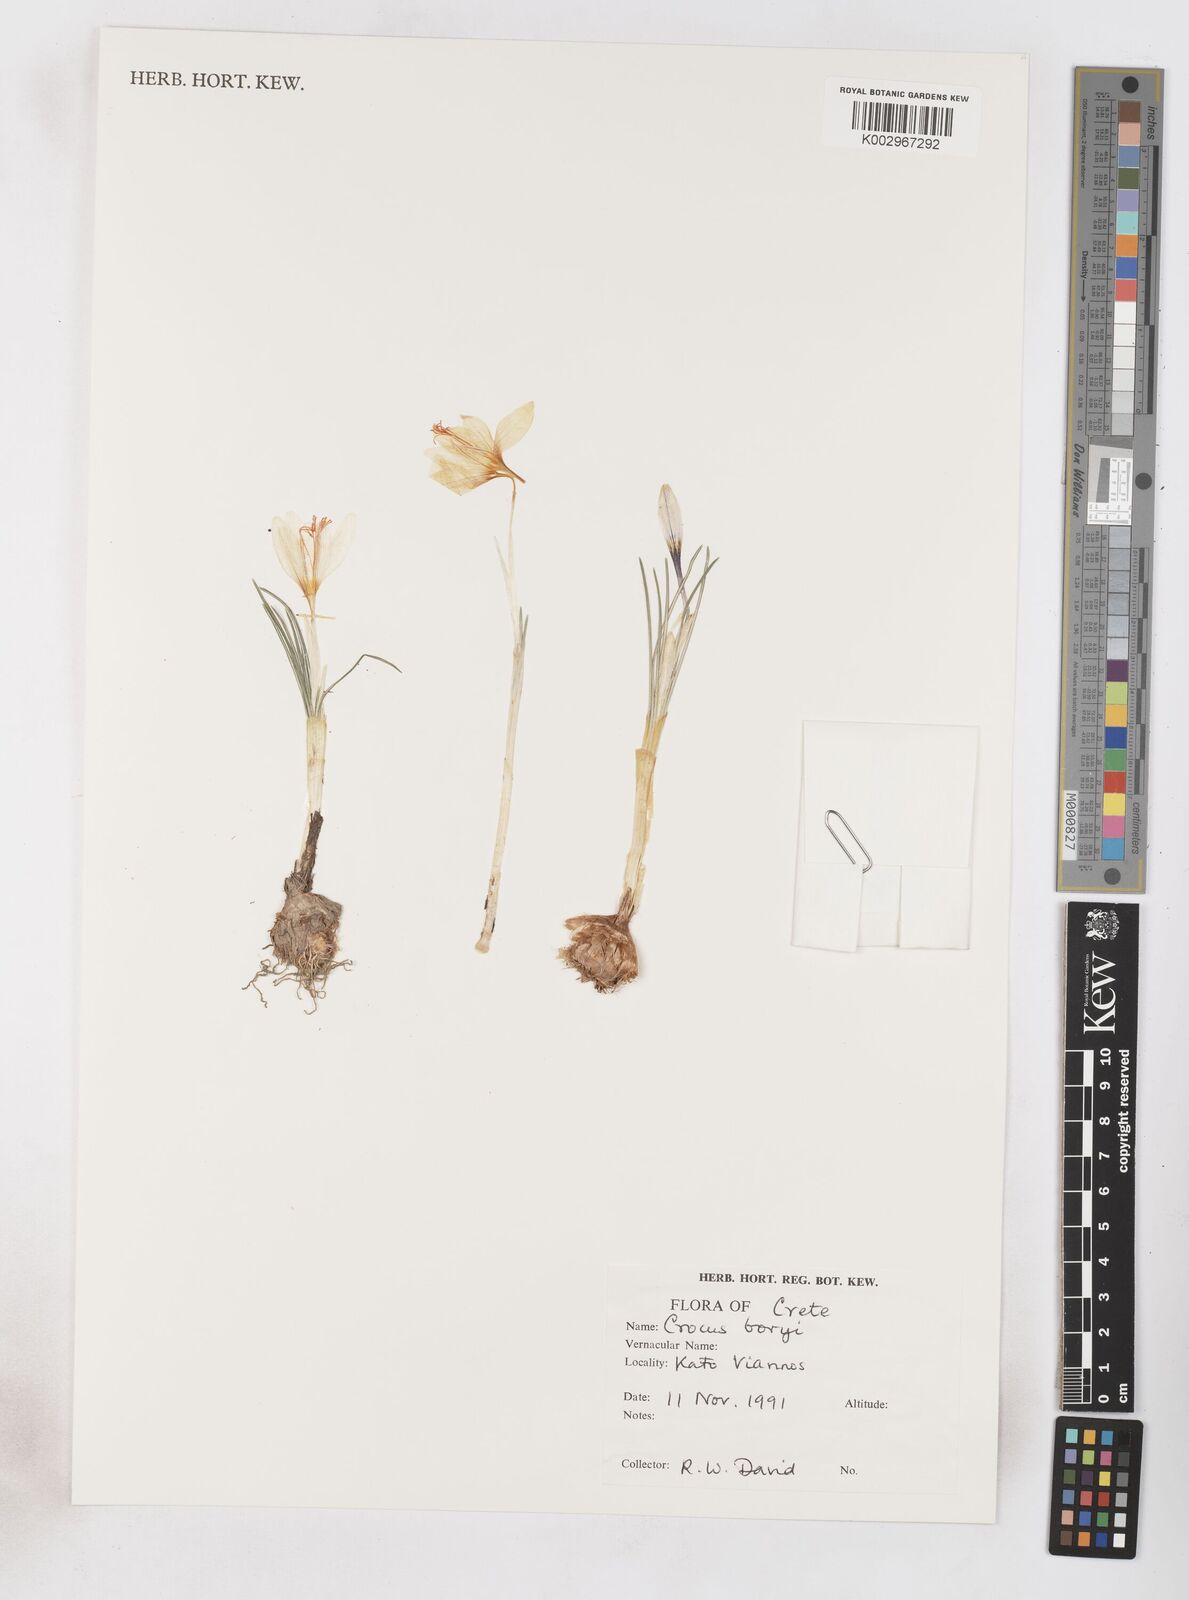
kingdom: Plantae
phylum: Tracheophyta
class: Liliopsida
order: Asparagales
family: Iridaceae
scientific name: Iridaceae
